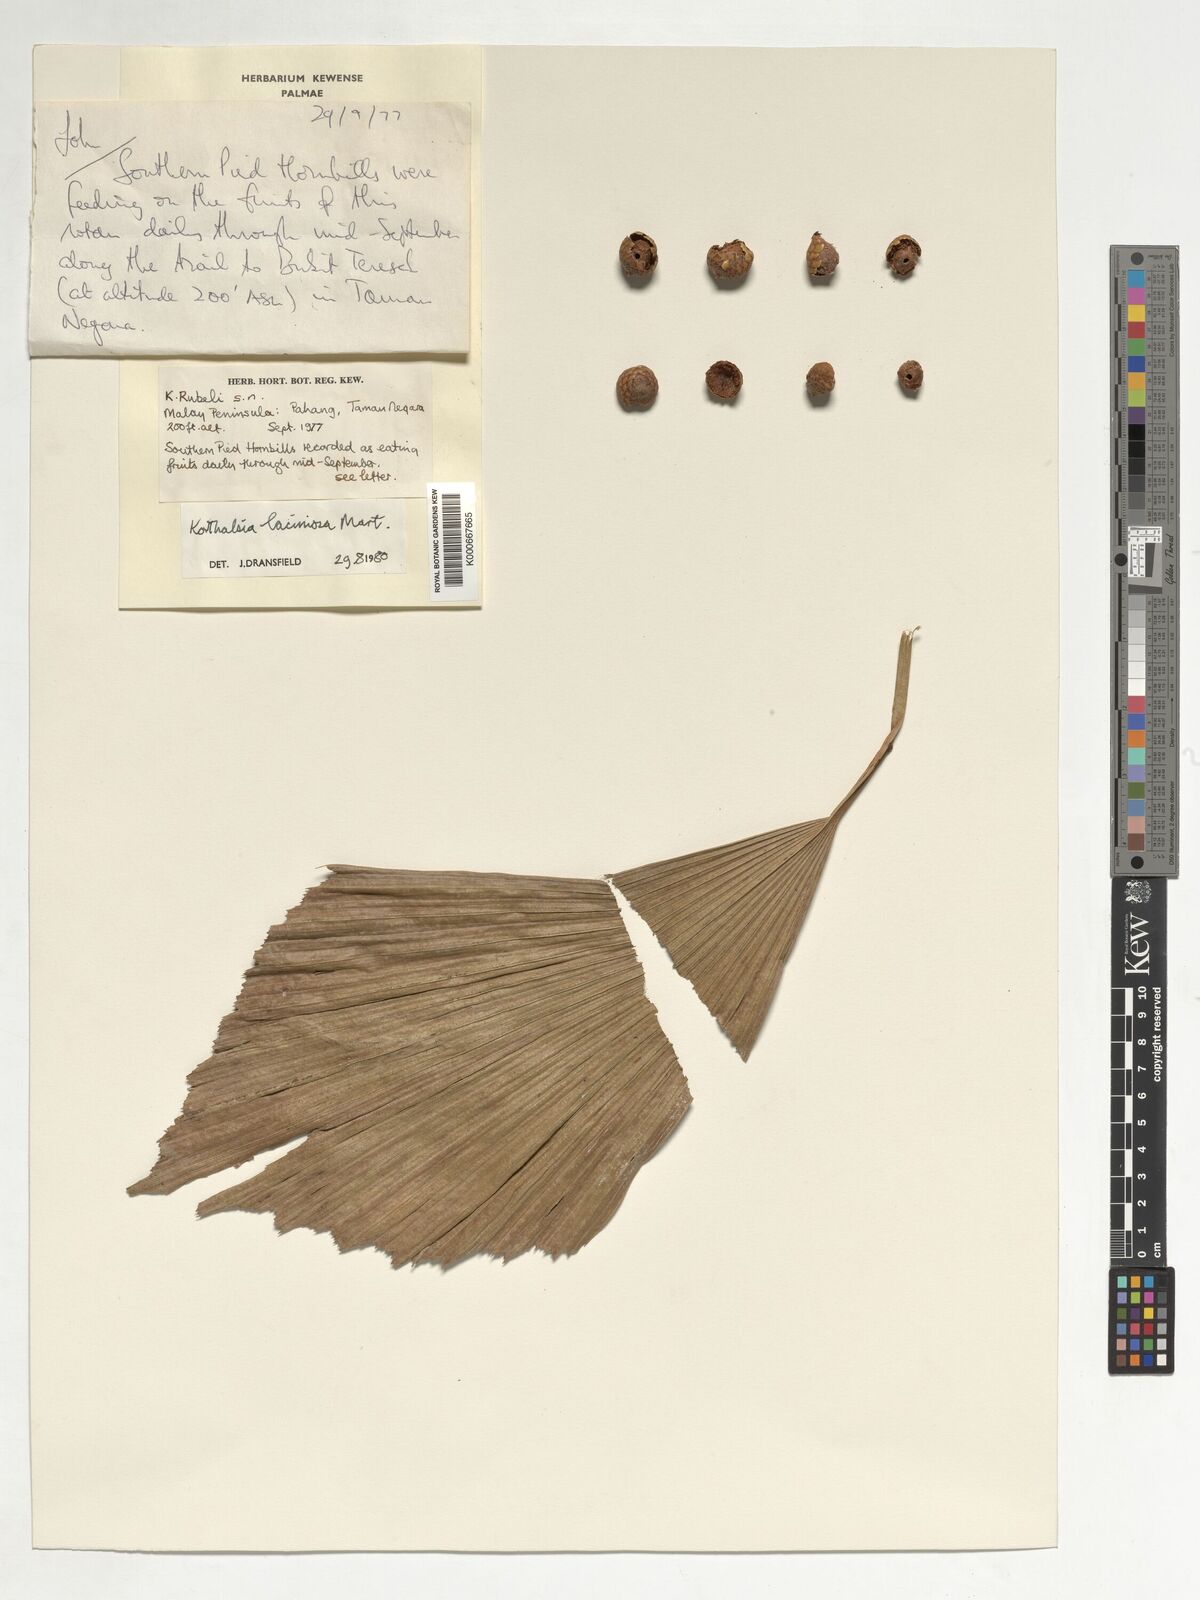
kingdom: Plantae
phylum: Tracheophyta
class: Liliopsida
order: Arecales
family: Arecaceae
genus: Korthalsia
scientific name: Korthalsia laciniosa
